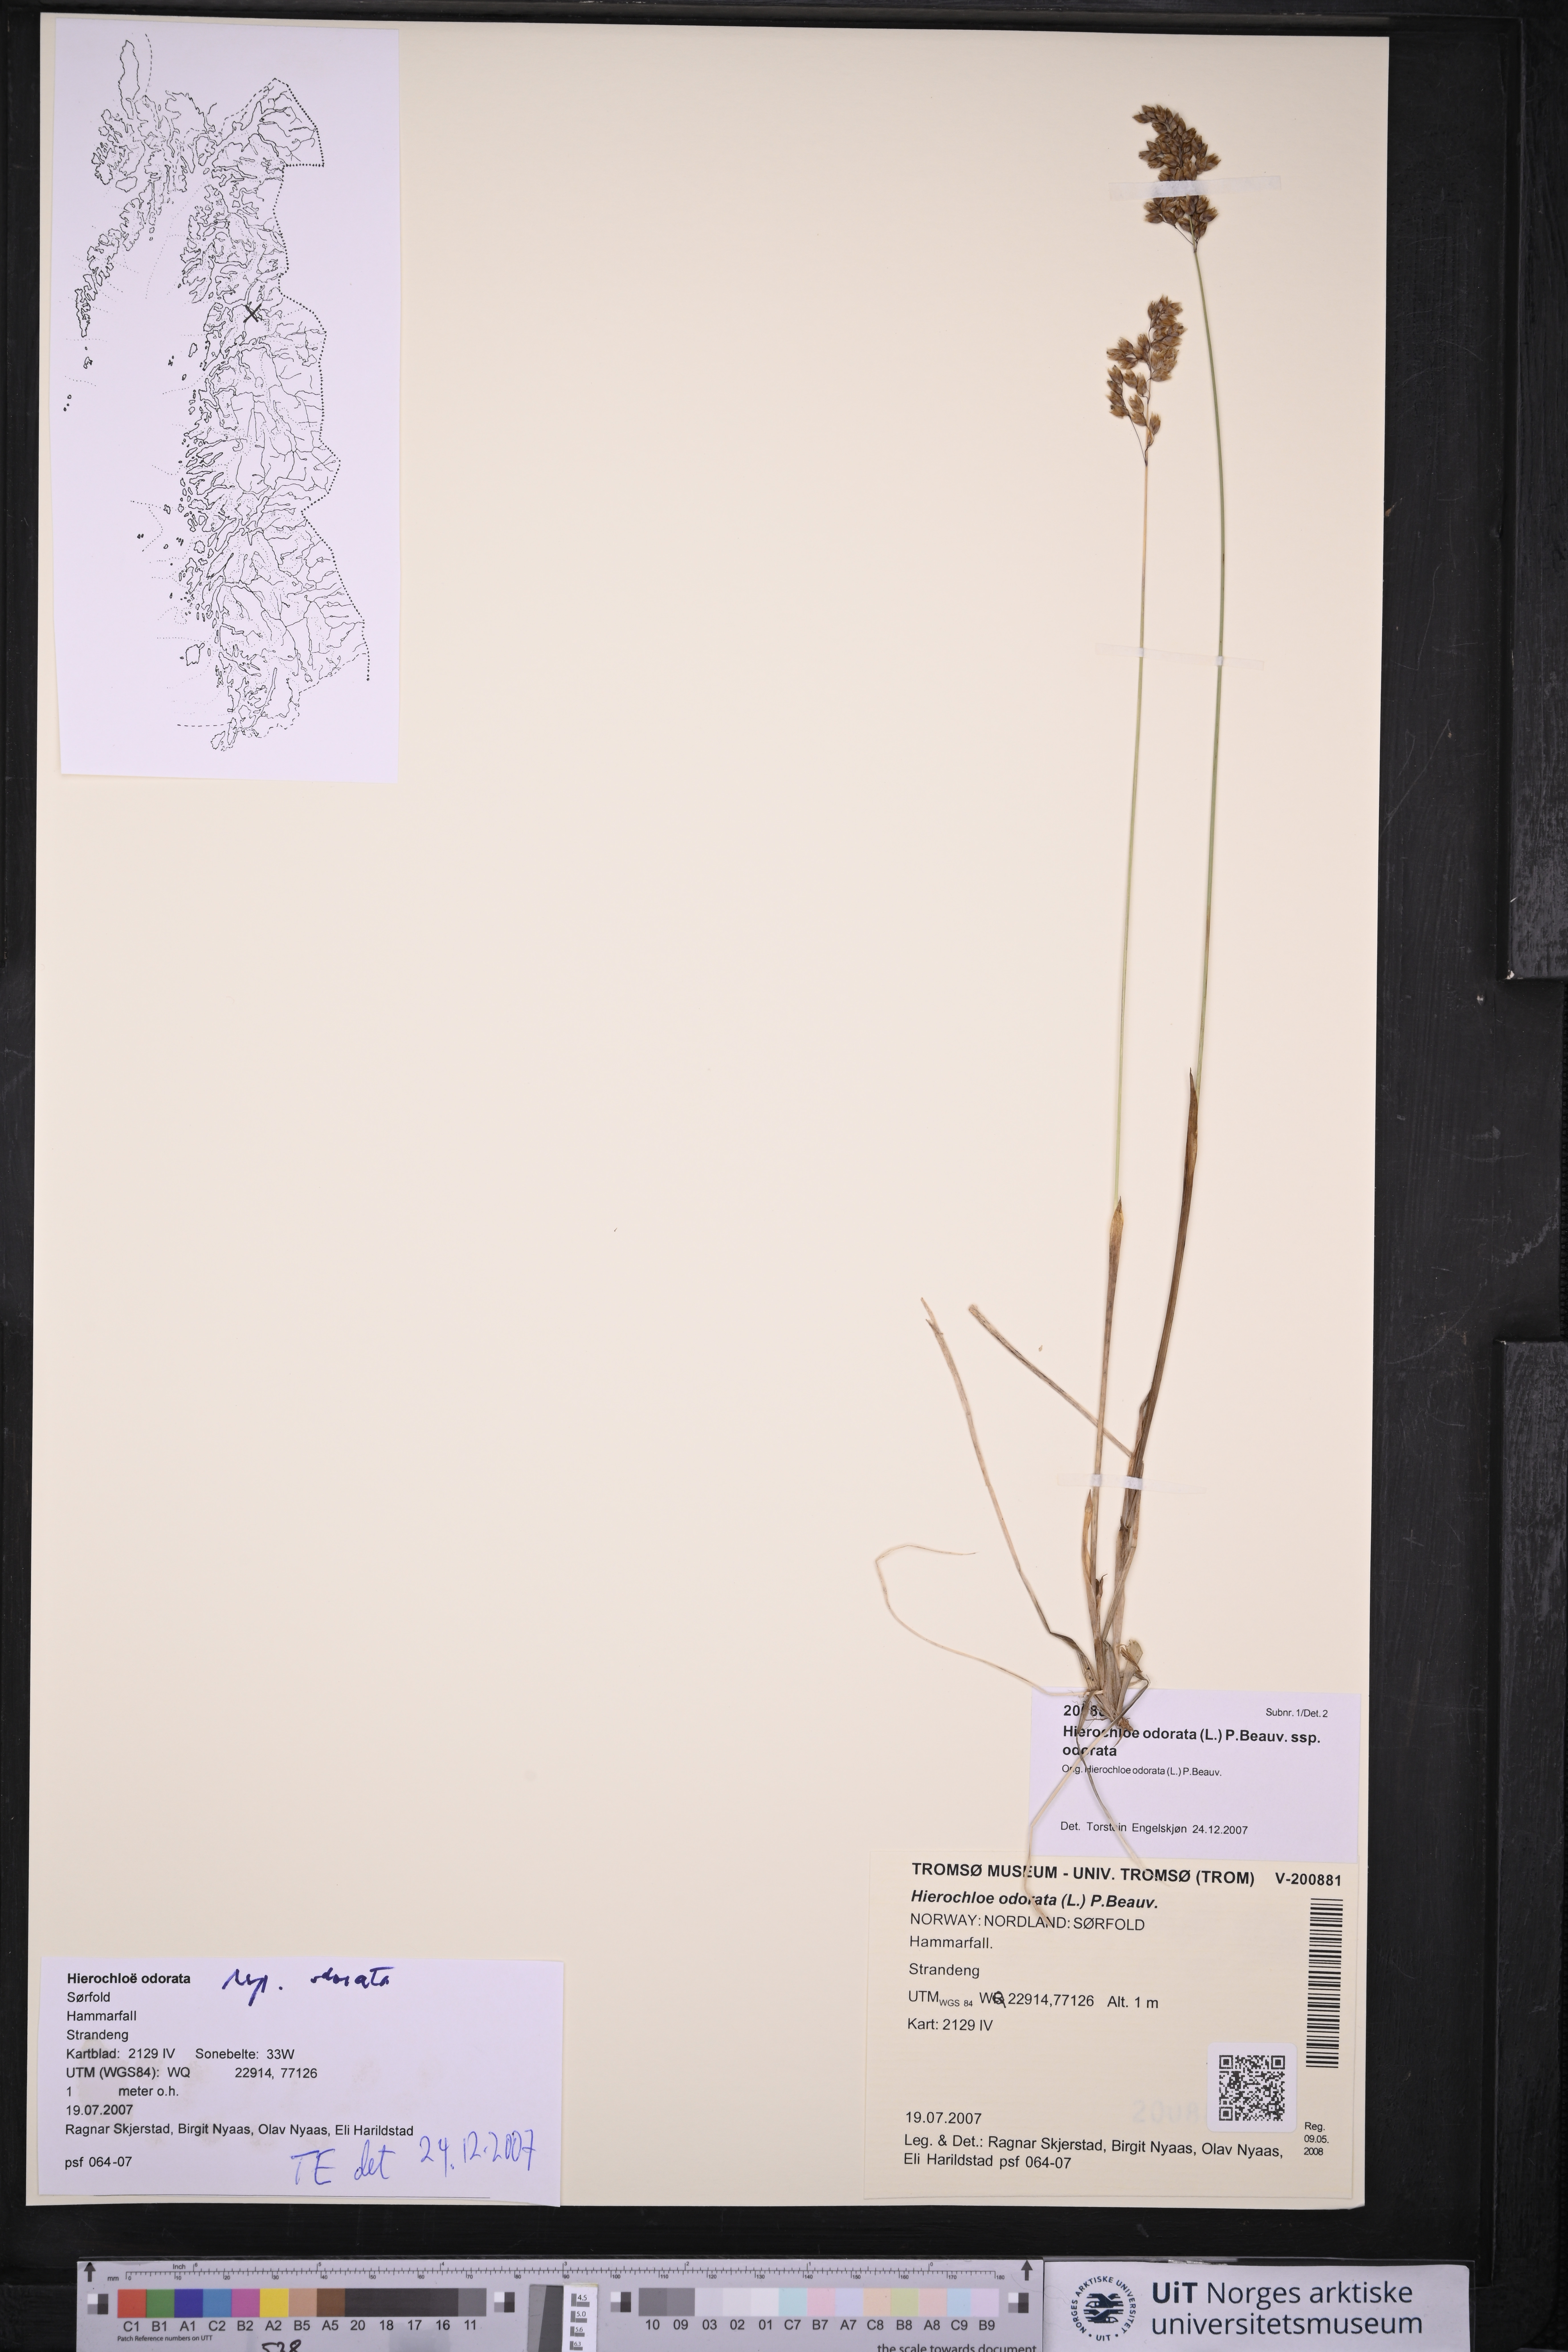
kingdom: Plantae
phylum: Tracheophyta
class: Liliopsida
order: Poales
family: Poaceae
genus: Anthoxanthum
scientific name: Anthoxanthum nitens
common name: Holy grass
